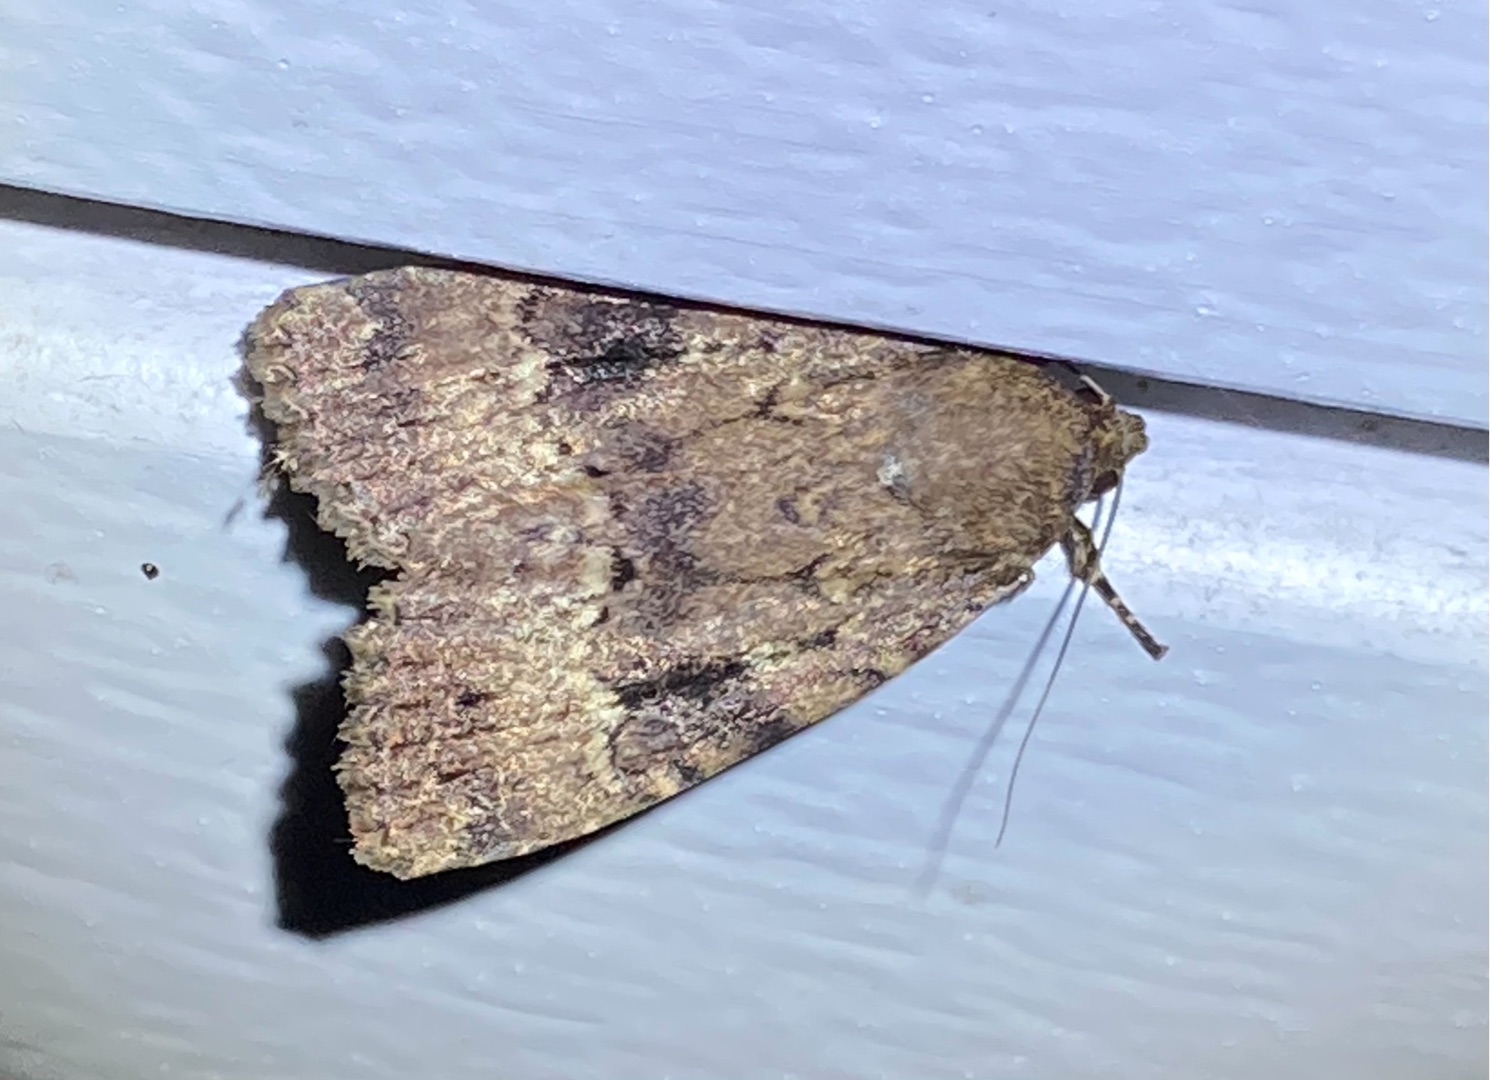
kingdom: Animalia
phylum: Arthropoda
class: Insecta
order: Lepidoptera
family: Noctuidae
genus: Amphipyra
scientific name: Amphipyra pyramidea
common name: Pyramideugle
